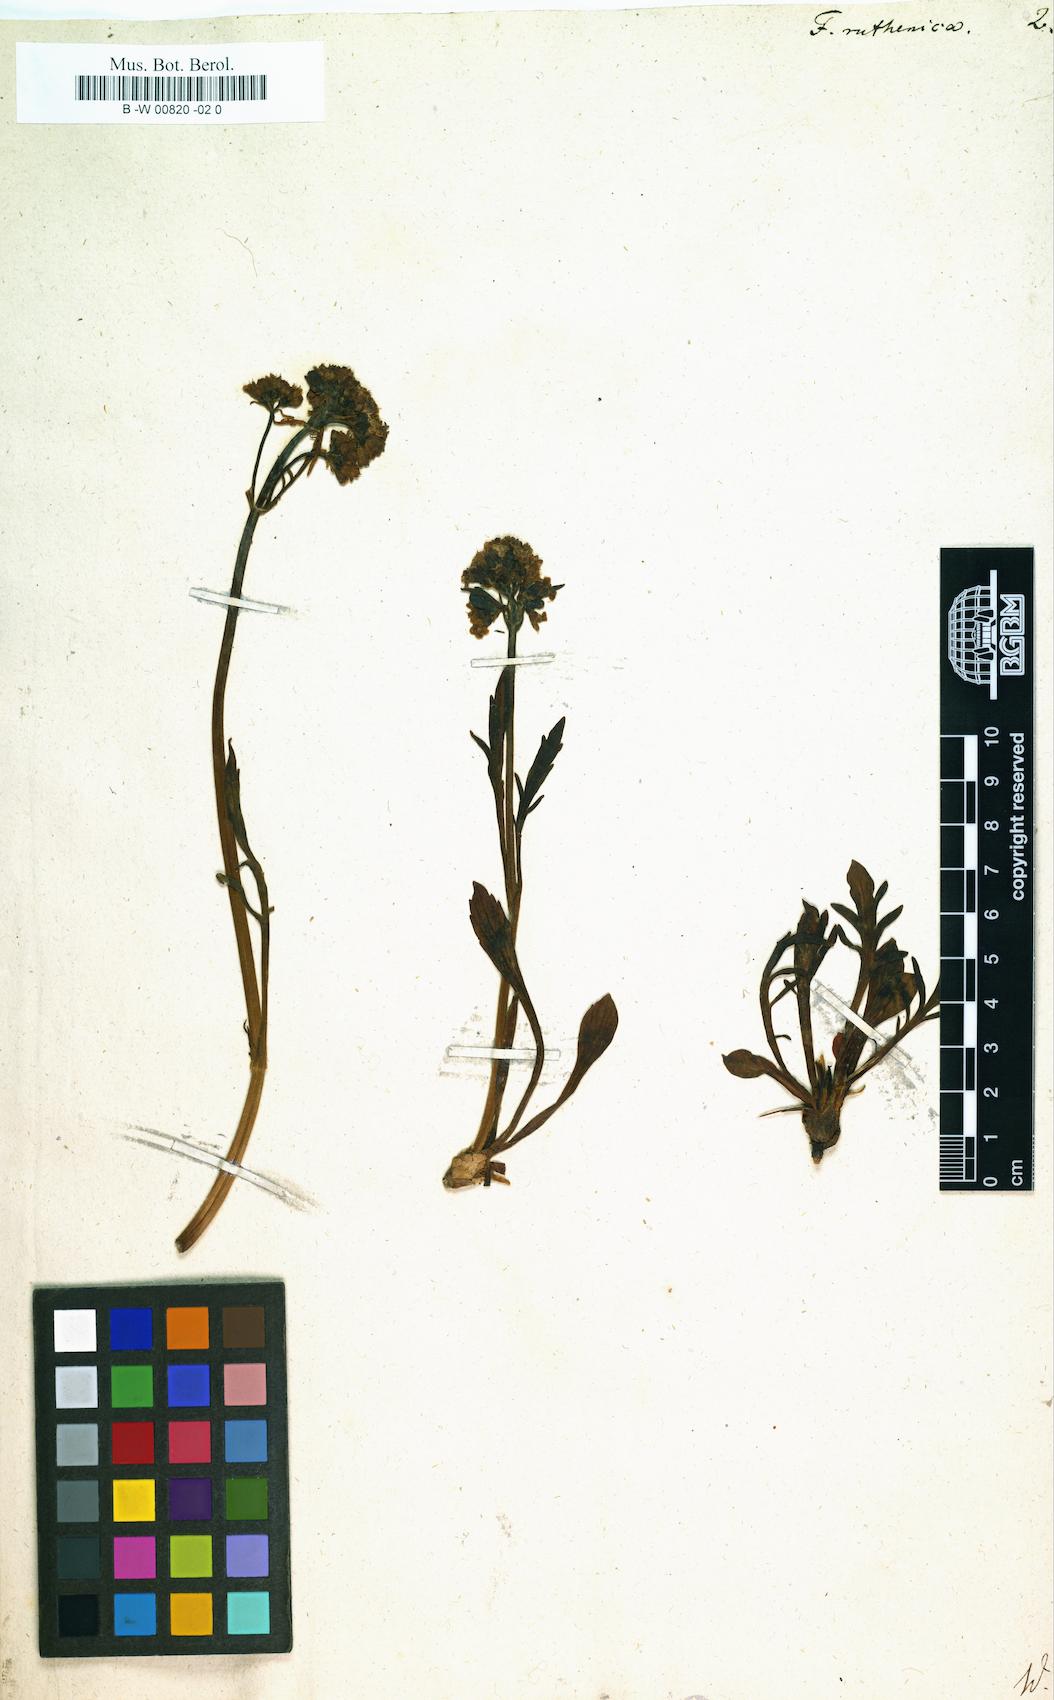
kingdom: Plantae
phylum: Tracheophyta
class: Magnoliopsida
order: Dipsacales
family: Caprifoliaceae
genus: Patrinia
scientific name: Patrinia intermedia
